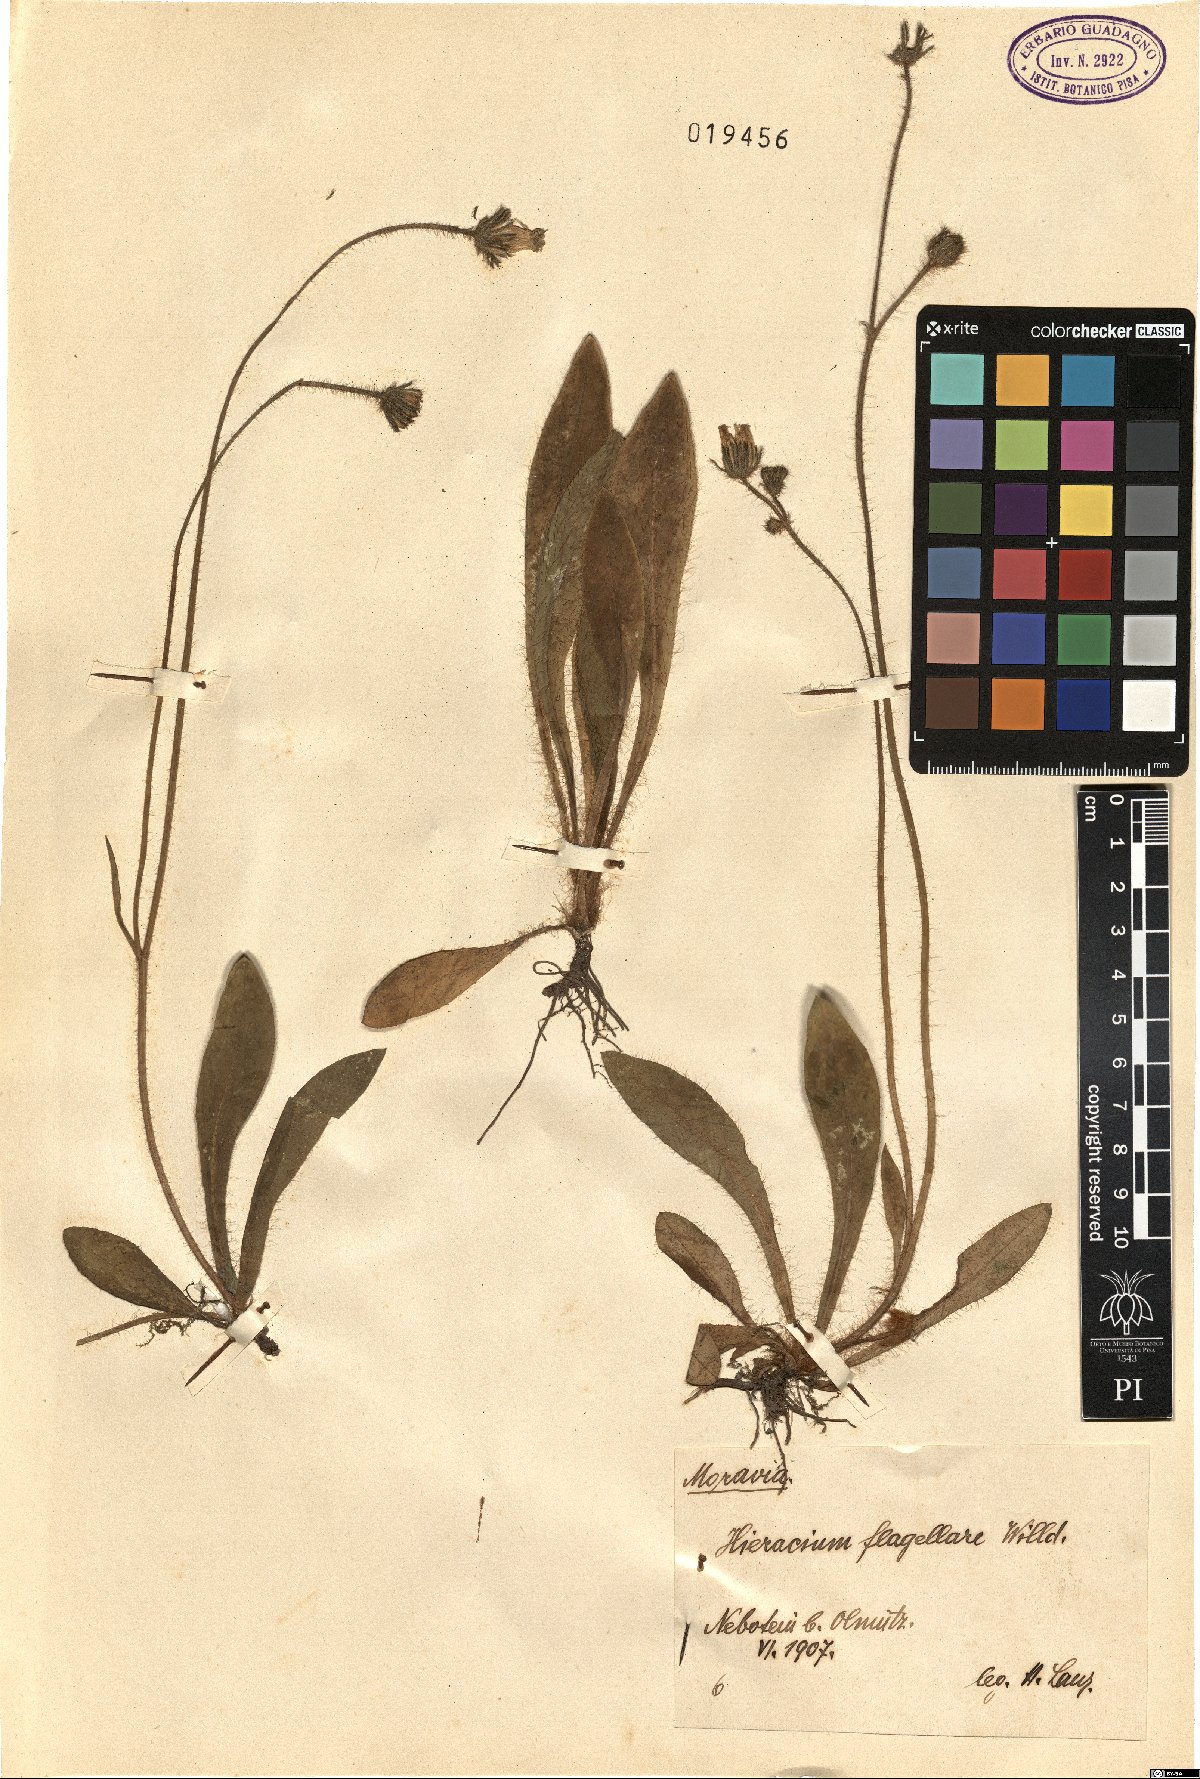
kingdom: Plantae
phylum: Tracheophyta
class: Magnoliopsida
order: Asterales
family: Asteraceae
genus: Pilosella
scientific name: Pilosella
